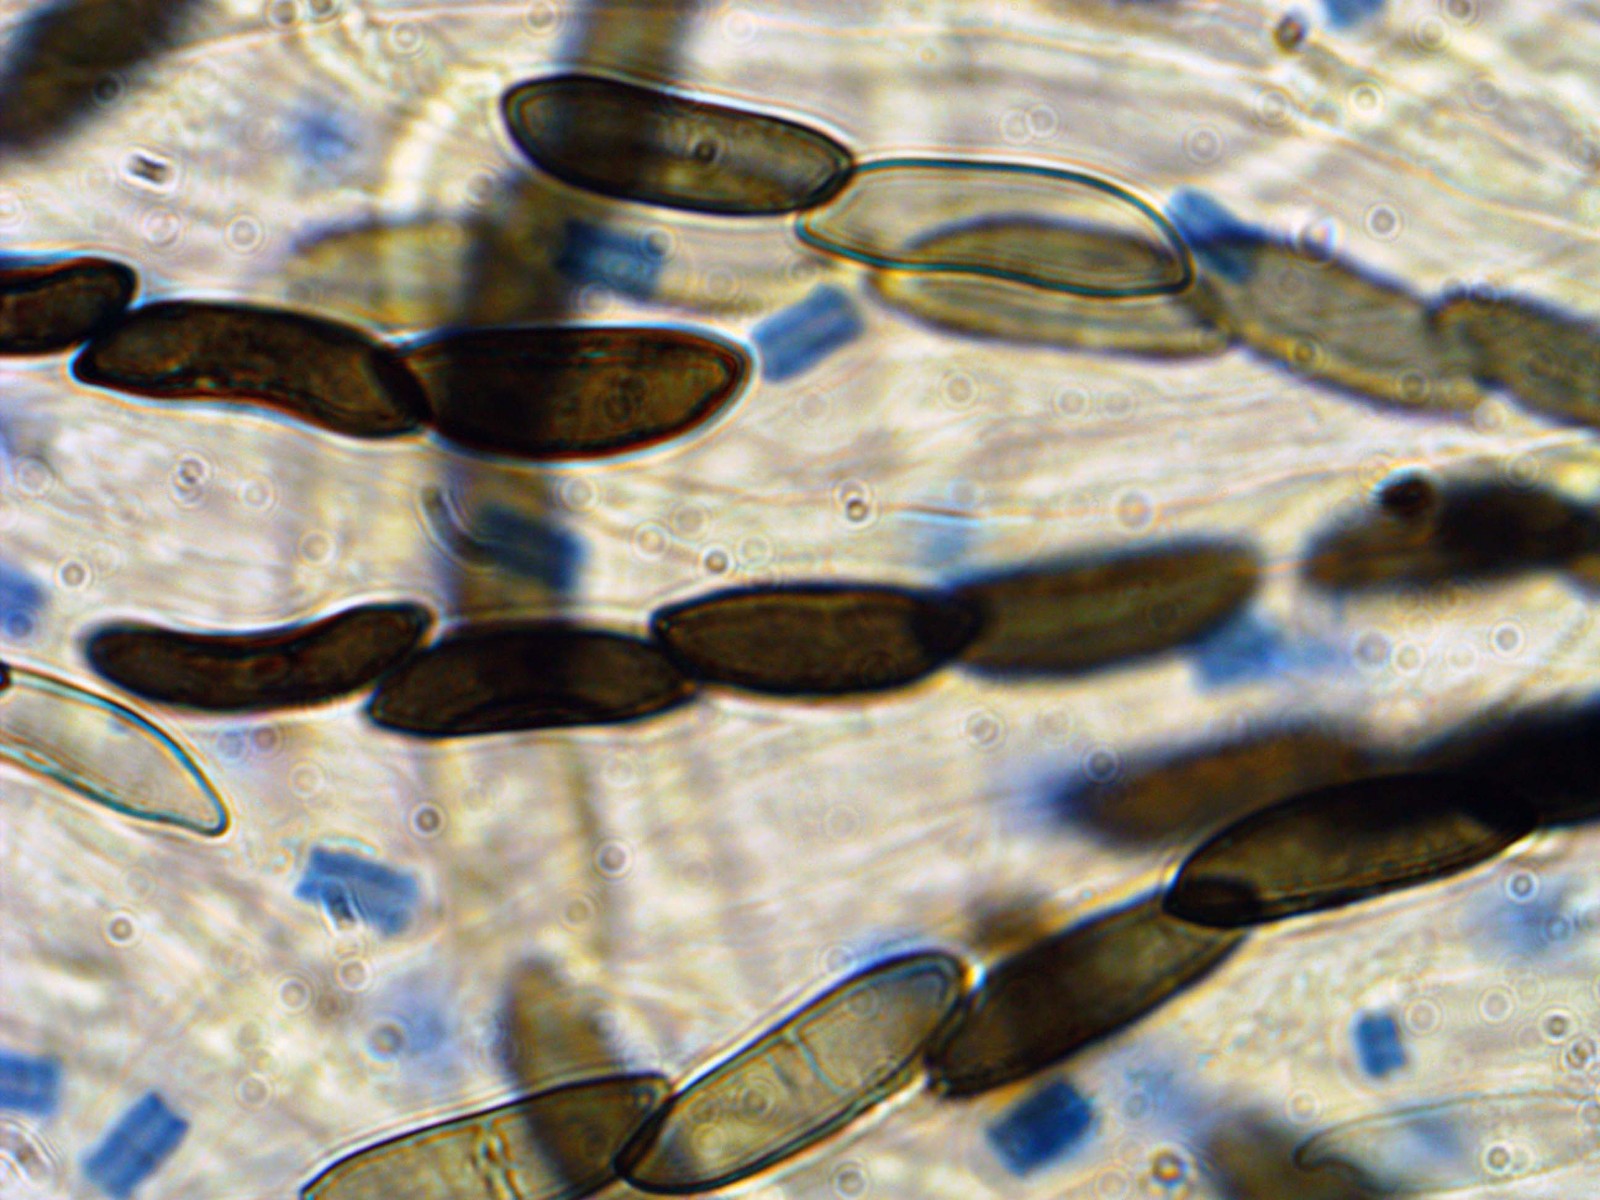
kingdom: Fungi
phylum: Ascomycota
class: Sordariomycetes
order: Xylariales
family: Xylariaceae
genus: Rosellinia
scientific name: Rosellinia marcucciana
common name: måtteløs kulkaviar
